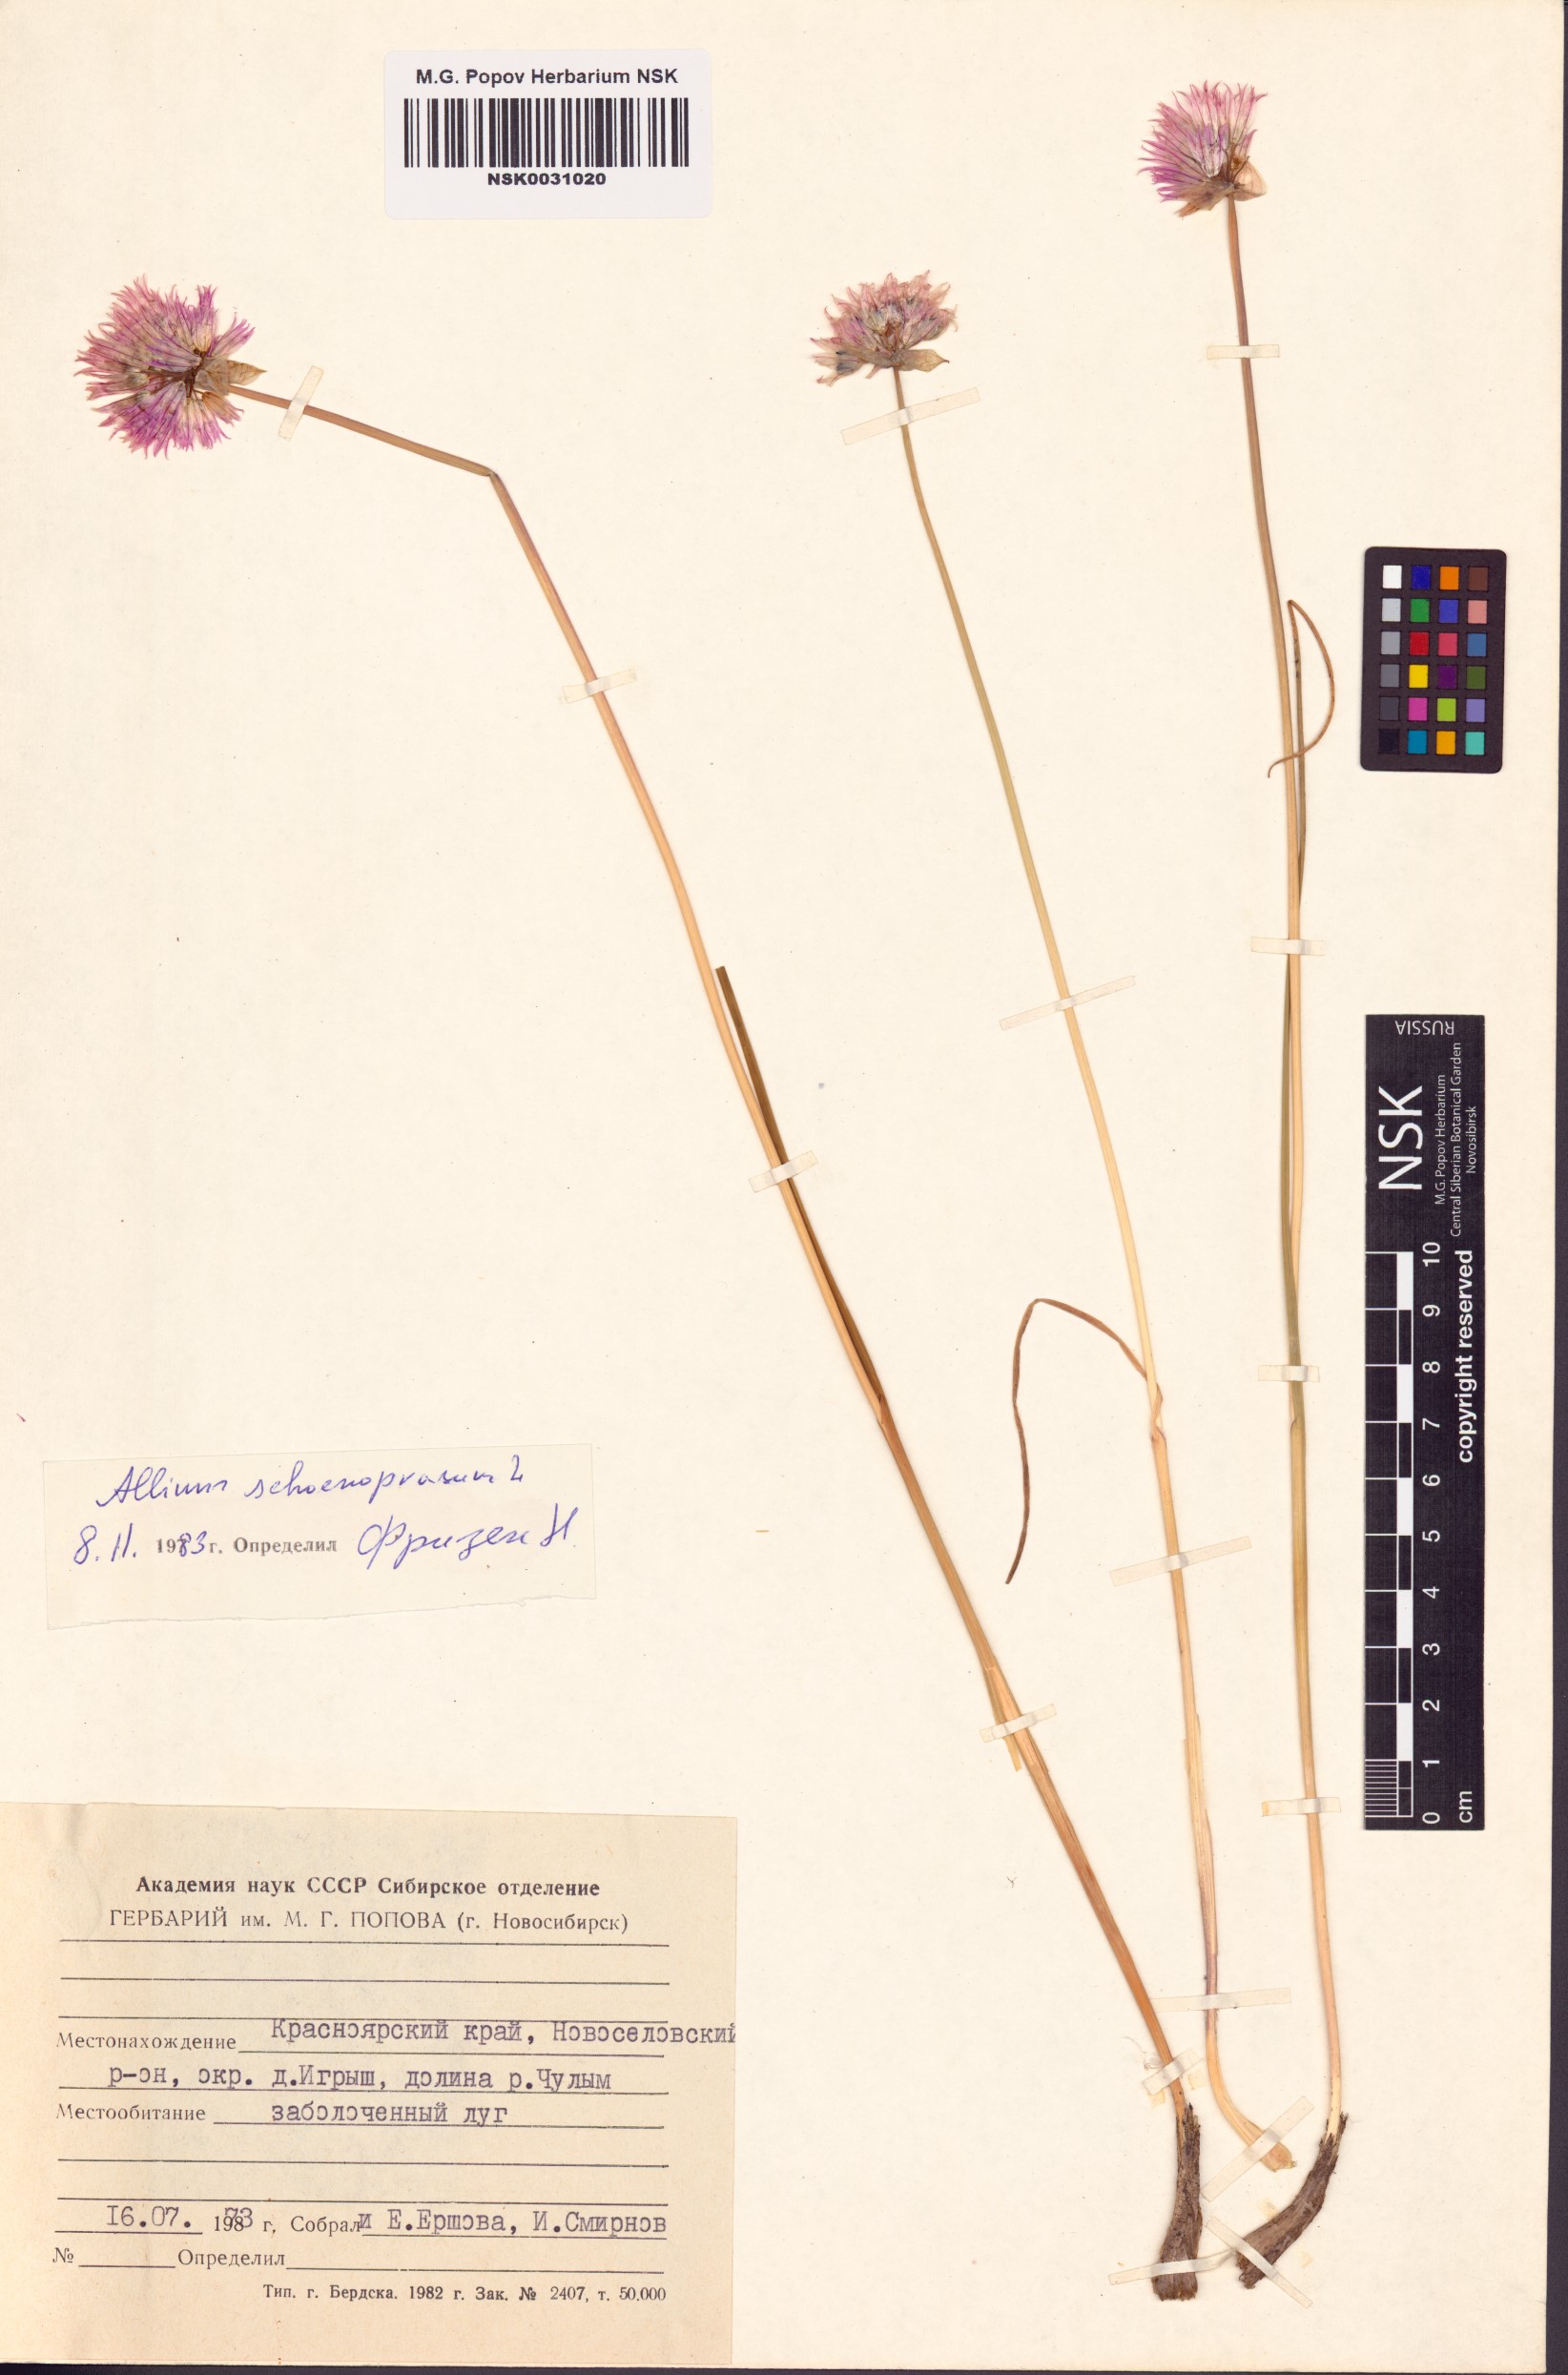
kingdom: Plantae
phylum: Tracheophyta
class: Liliopsida
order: Asparagales
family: Amaryllidaceae
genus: Allium
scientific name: Allium schoenoprasum
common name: Chives
